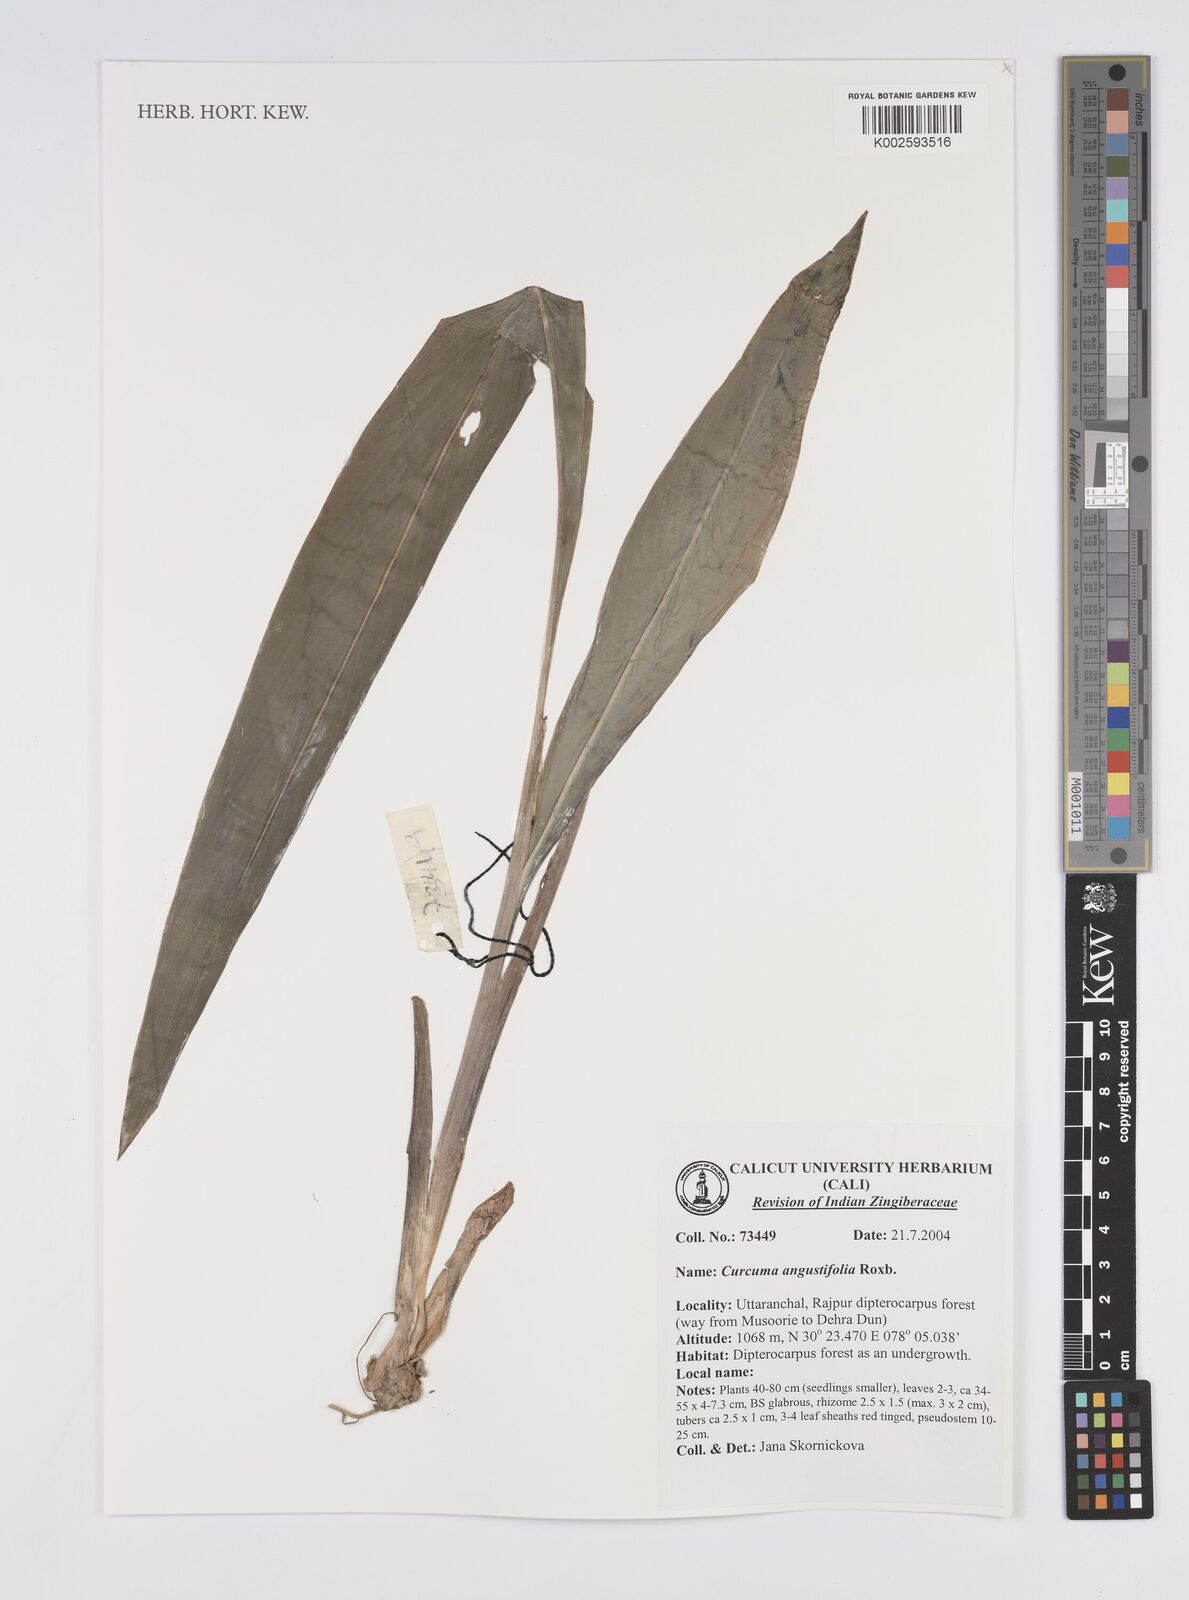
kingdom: Plantae
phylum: Tracheophyta
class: Liliopsida
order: Zingiberales
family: Zingiberaceae
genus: Curcuma
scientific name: Curcuma angustifolia
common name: East indian arrowroot
